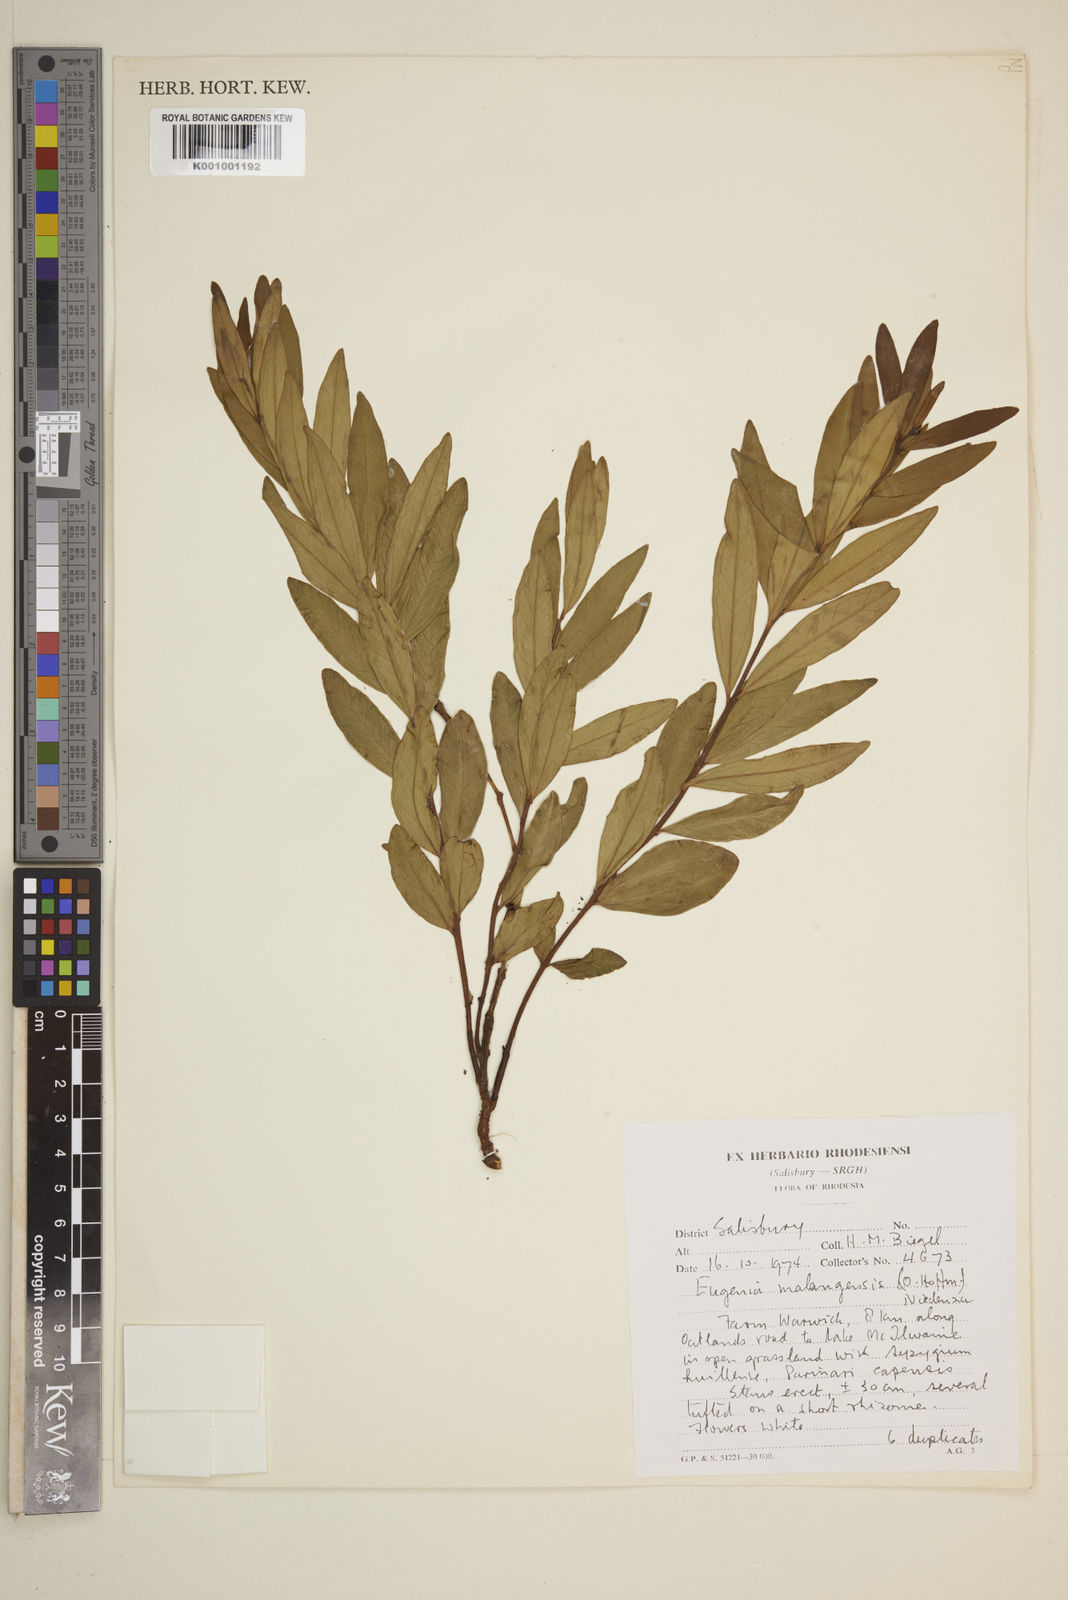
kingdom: Plantae
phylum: Tracheophyta
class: Magnoliopsida
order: Myrtales
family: Myrtaceae
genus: Eugenia
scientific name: Eugenia malangensis
